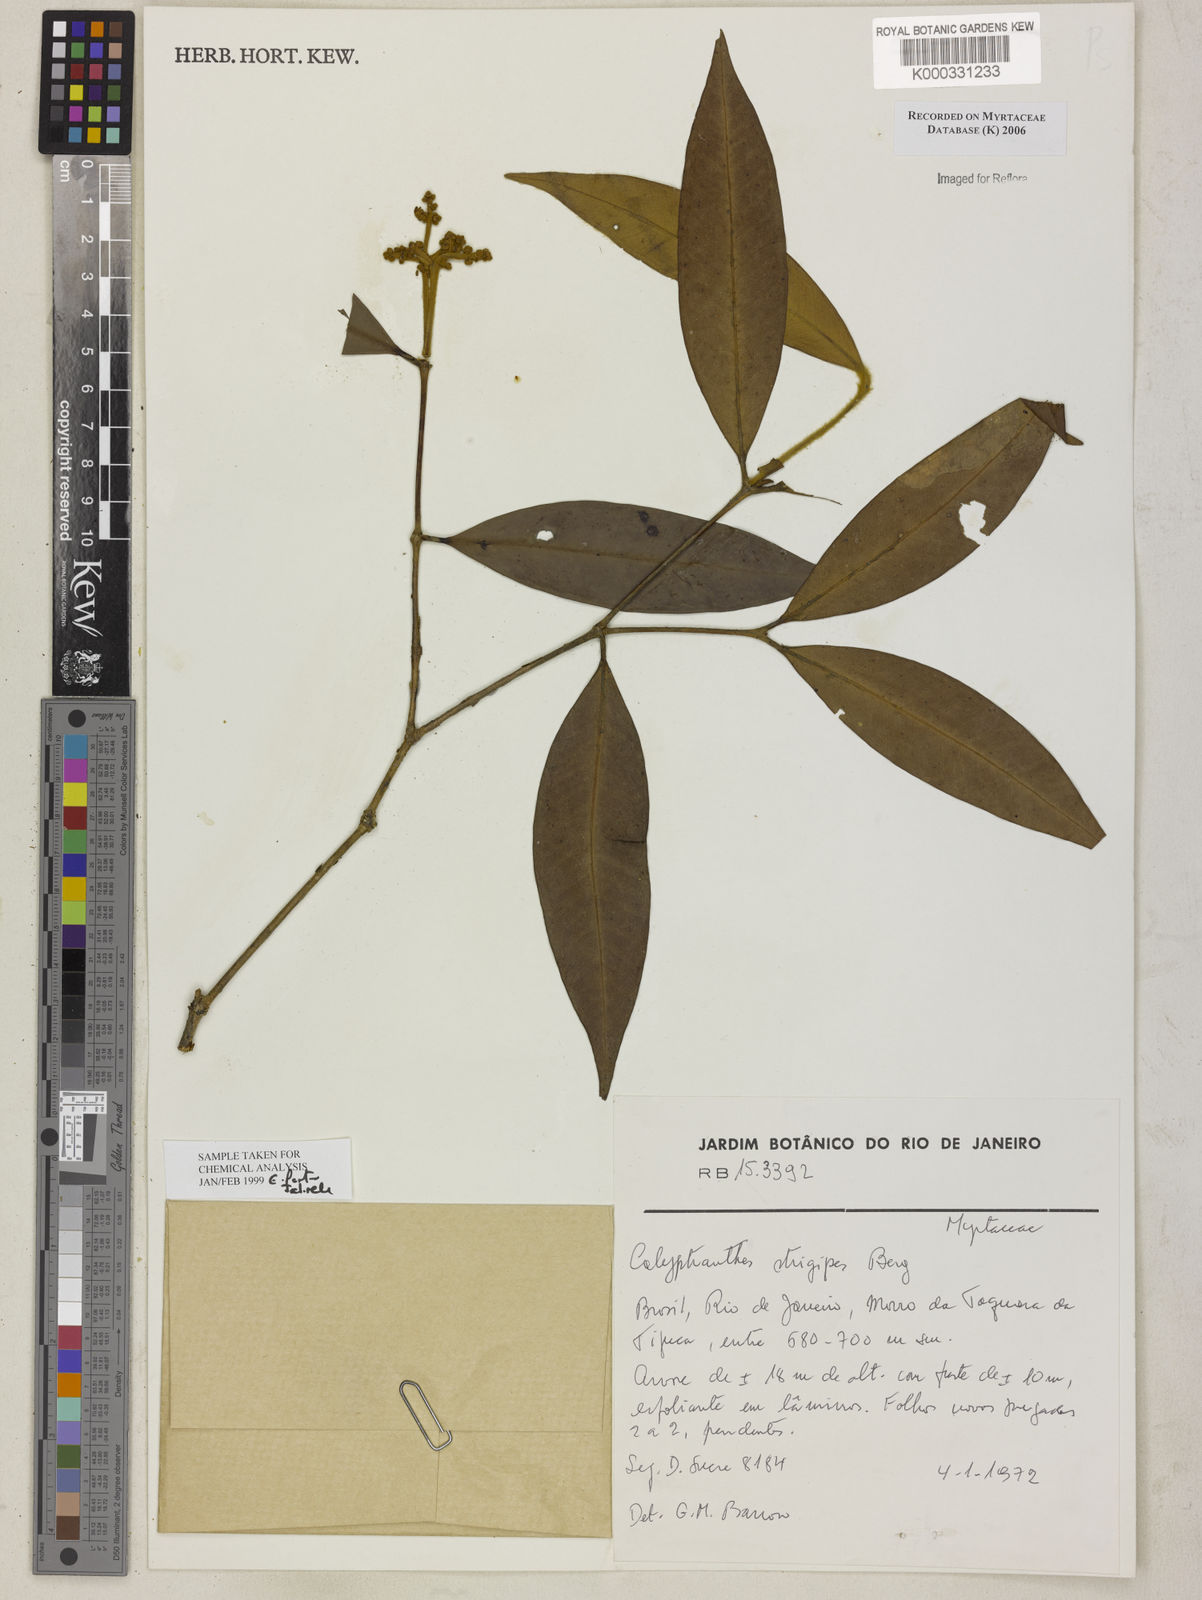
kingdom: Plantae
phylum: Tracheophyta
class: Magnoliopsida
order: Myrtales
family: Myrtaceae
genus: Myrcia
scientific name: Myrcia strigosa
